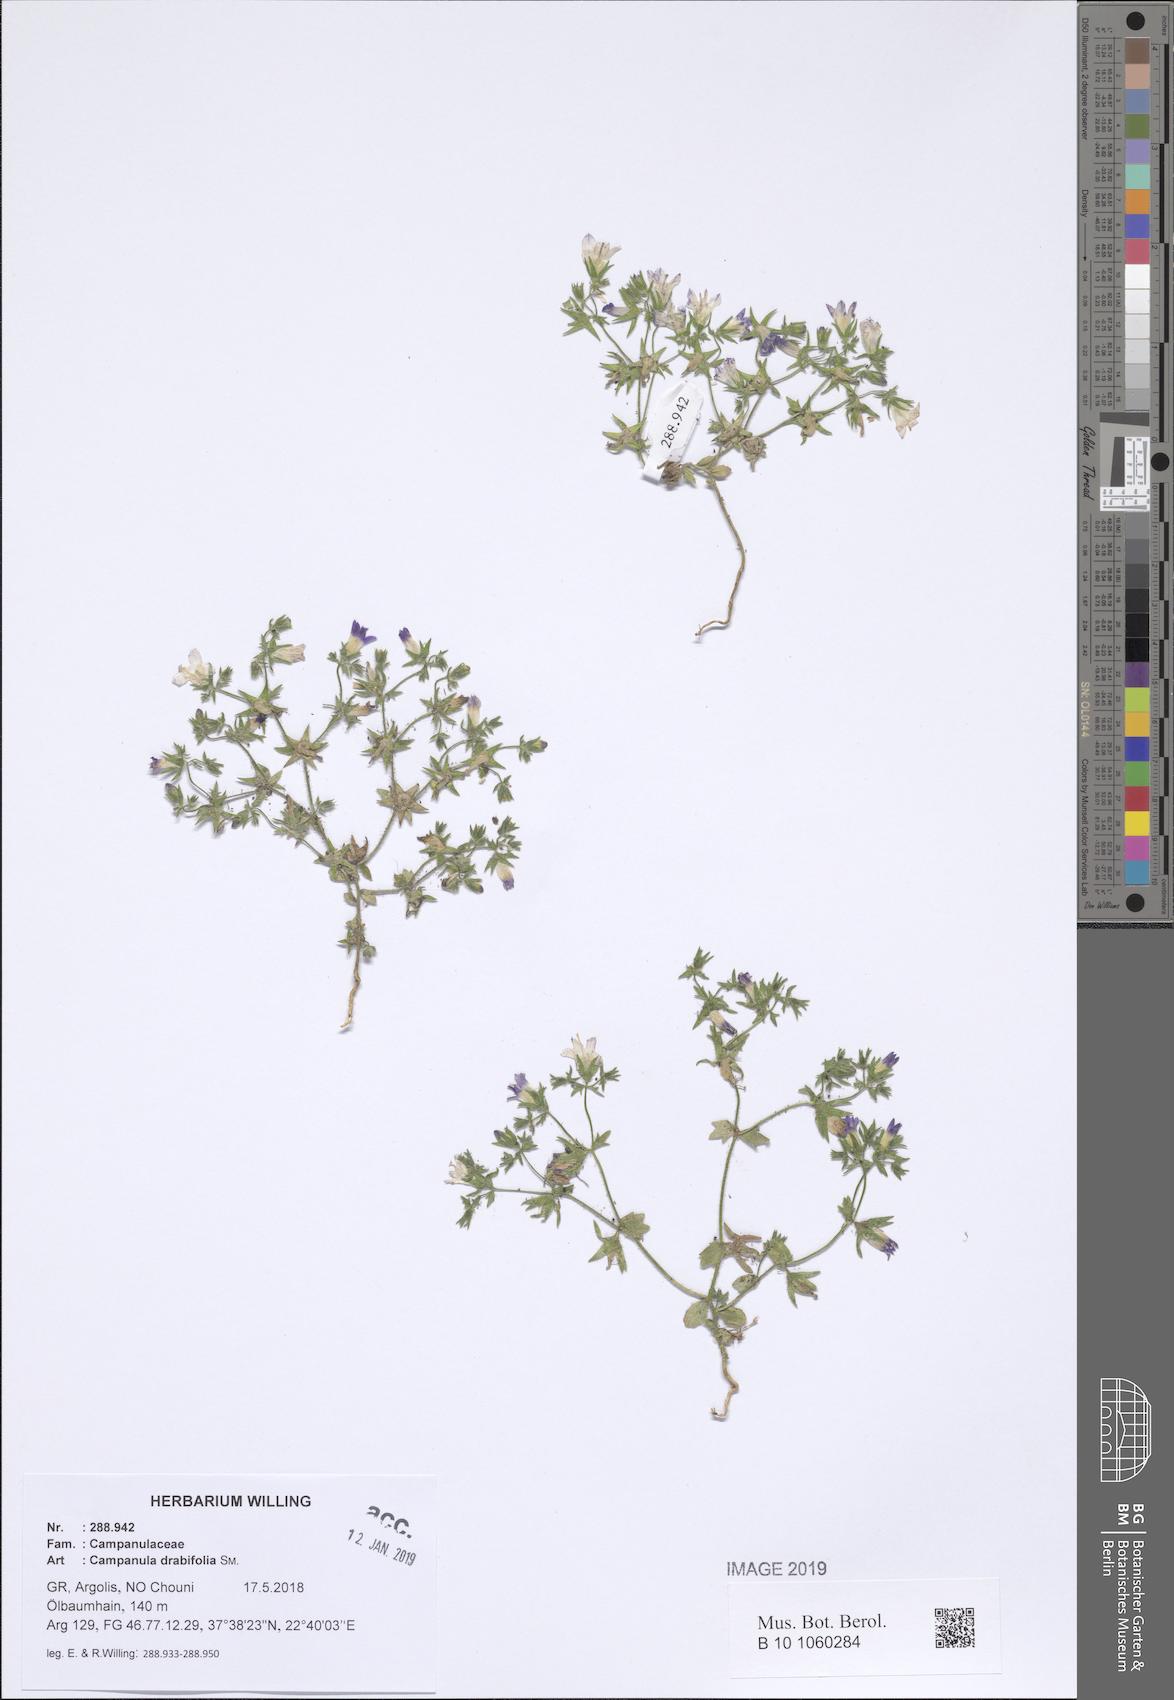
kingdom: Plantae
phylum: Tracheophyta
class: Magnoliopsida
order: Asterales
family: Campanulaceae
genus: Campanula
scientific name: Campanula drabifolia
